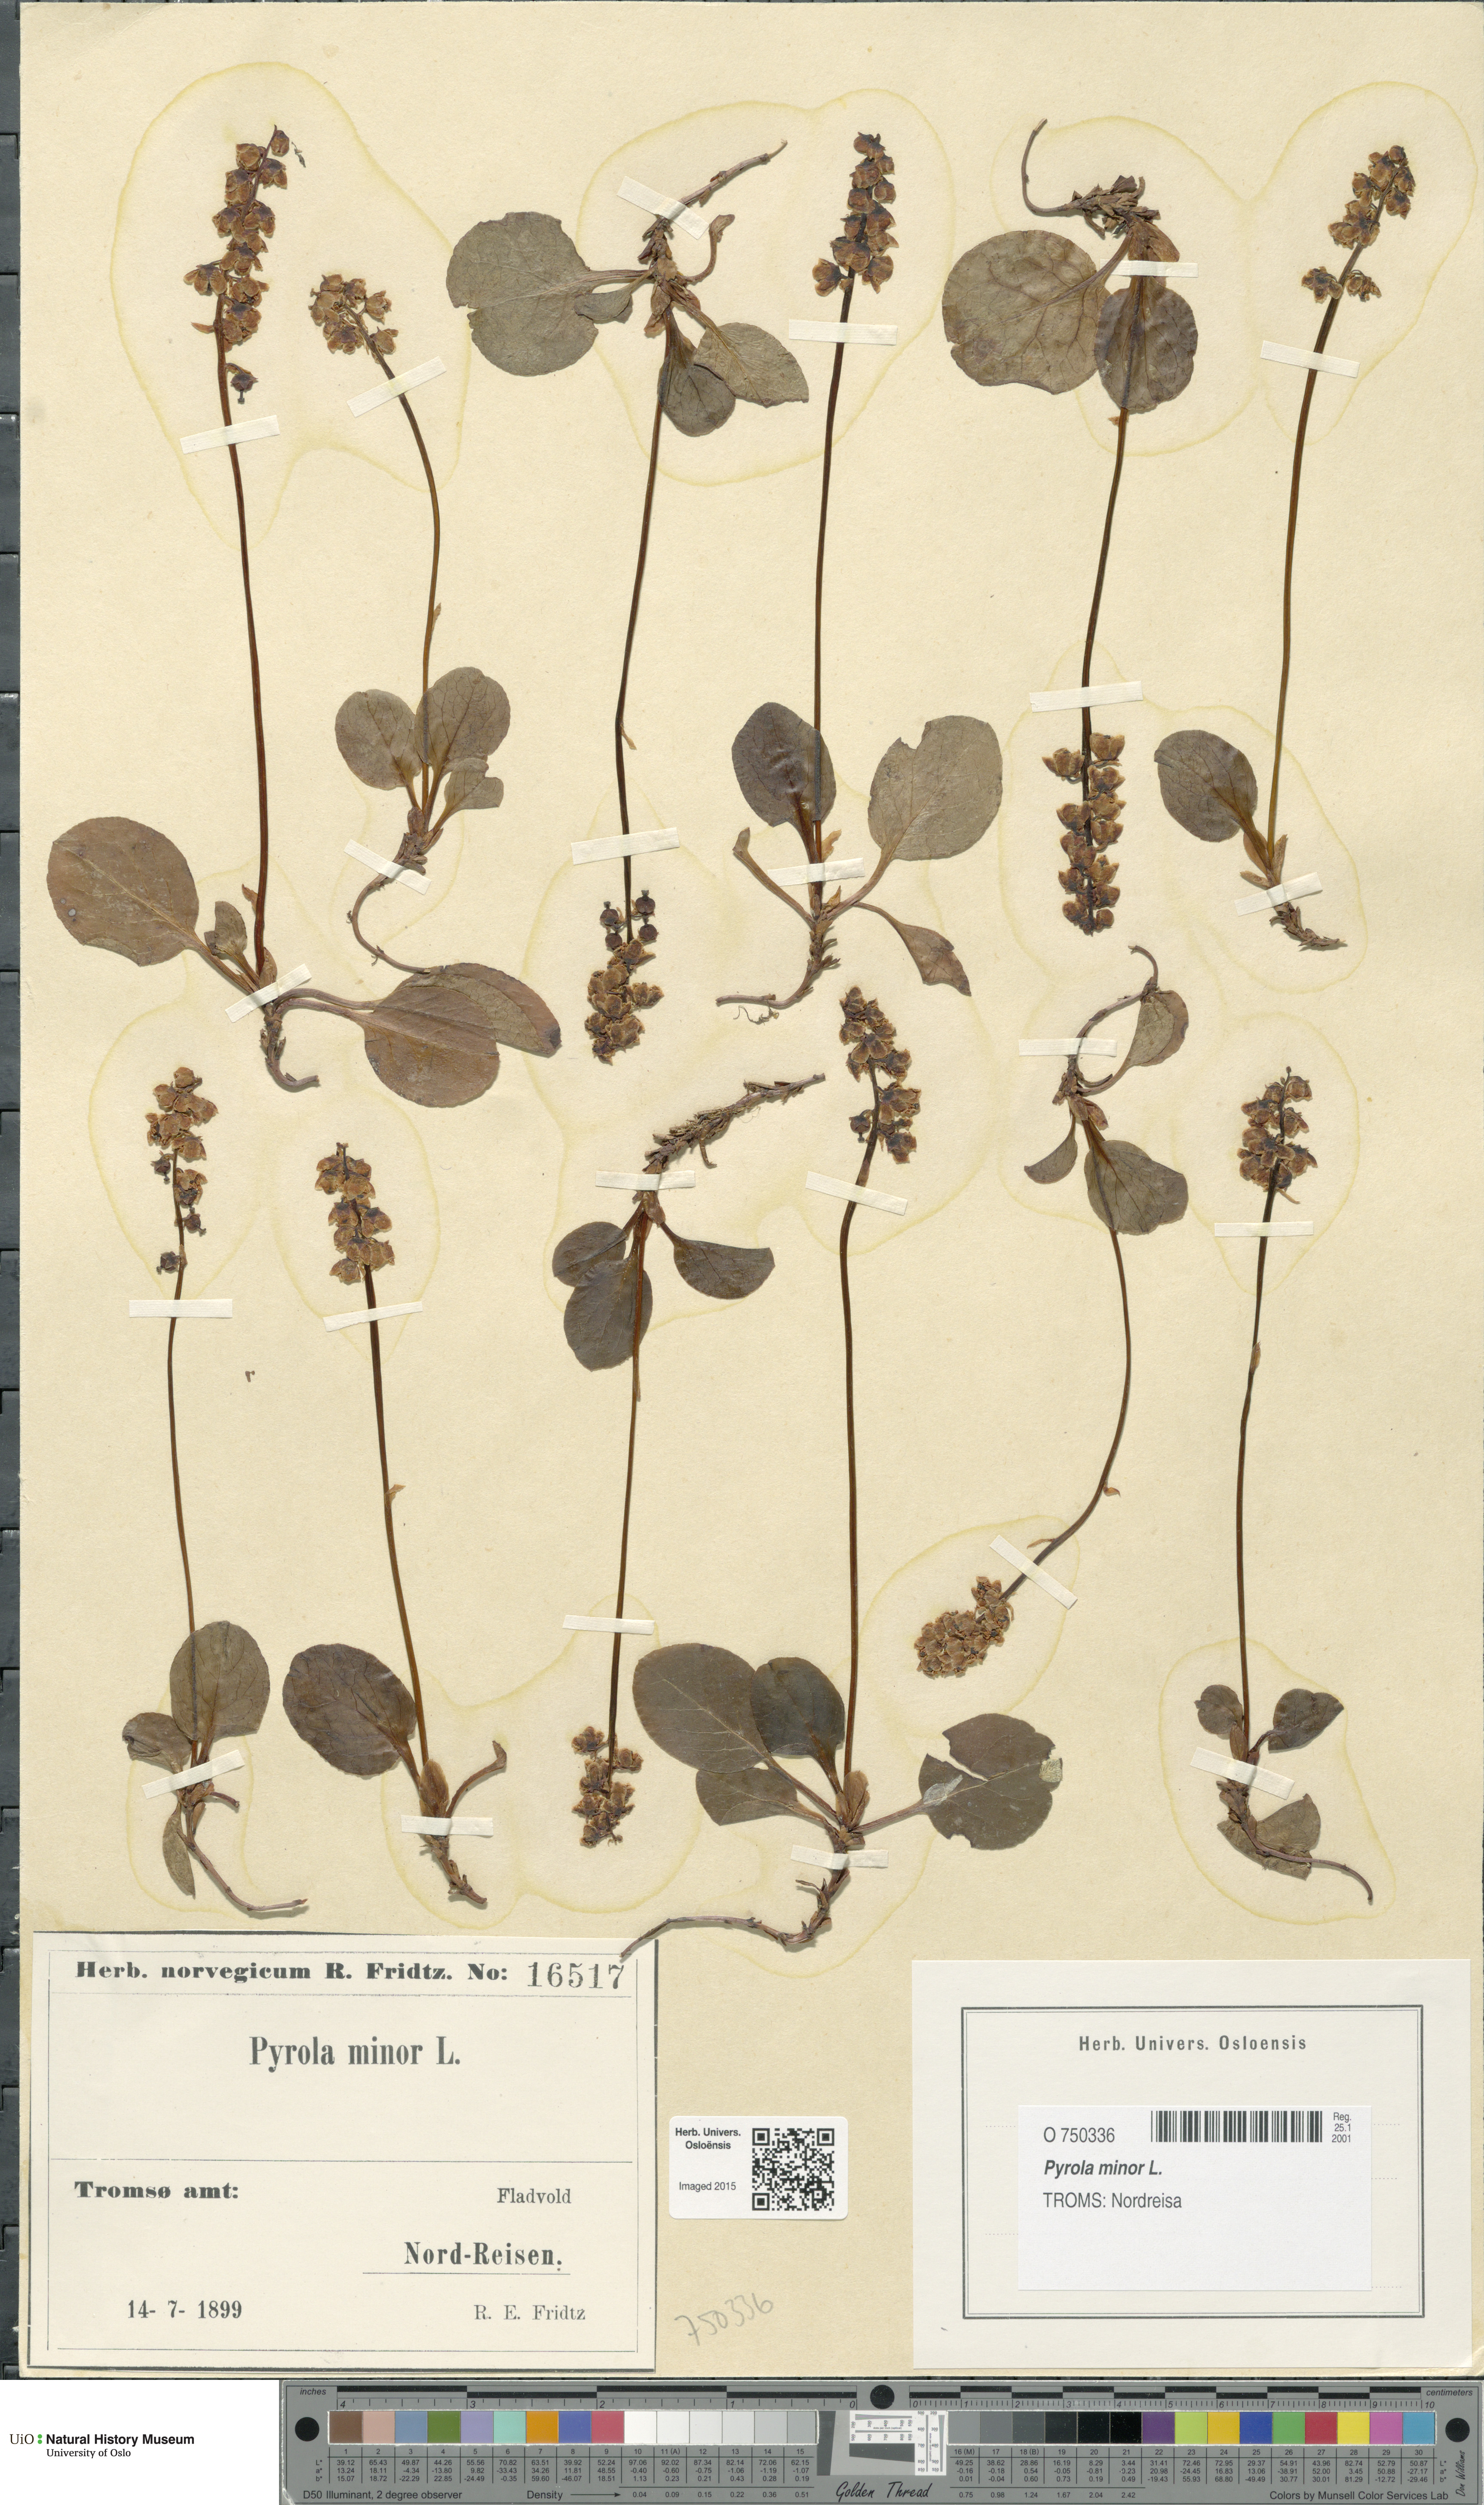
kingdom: Plantae
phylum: Tracheophyta
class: Magnoliopsida
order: Ericales
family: Ericaceae
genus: Pyrola
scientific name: Pyrola minor
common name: Common wintergreen
